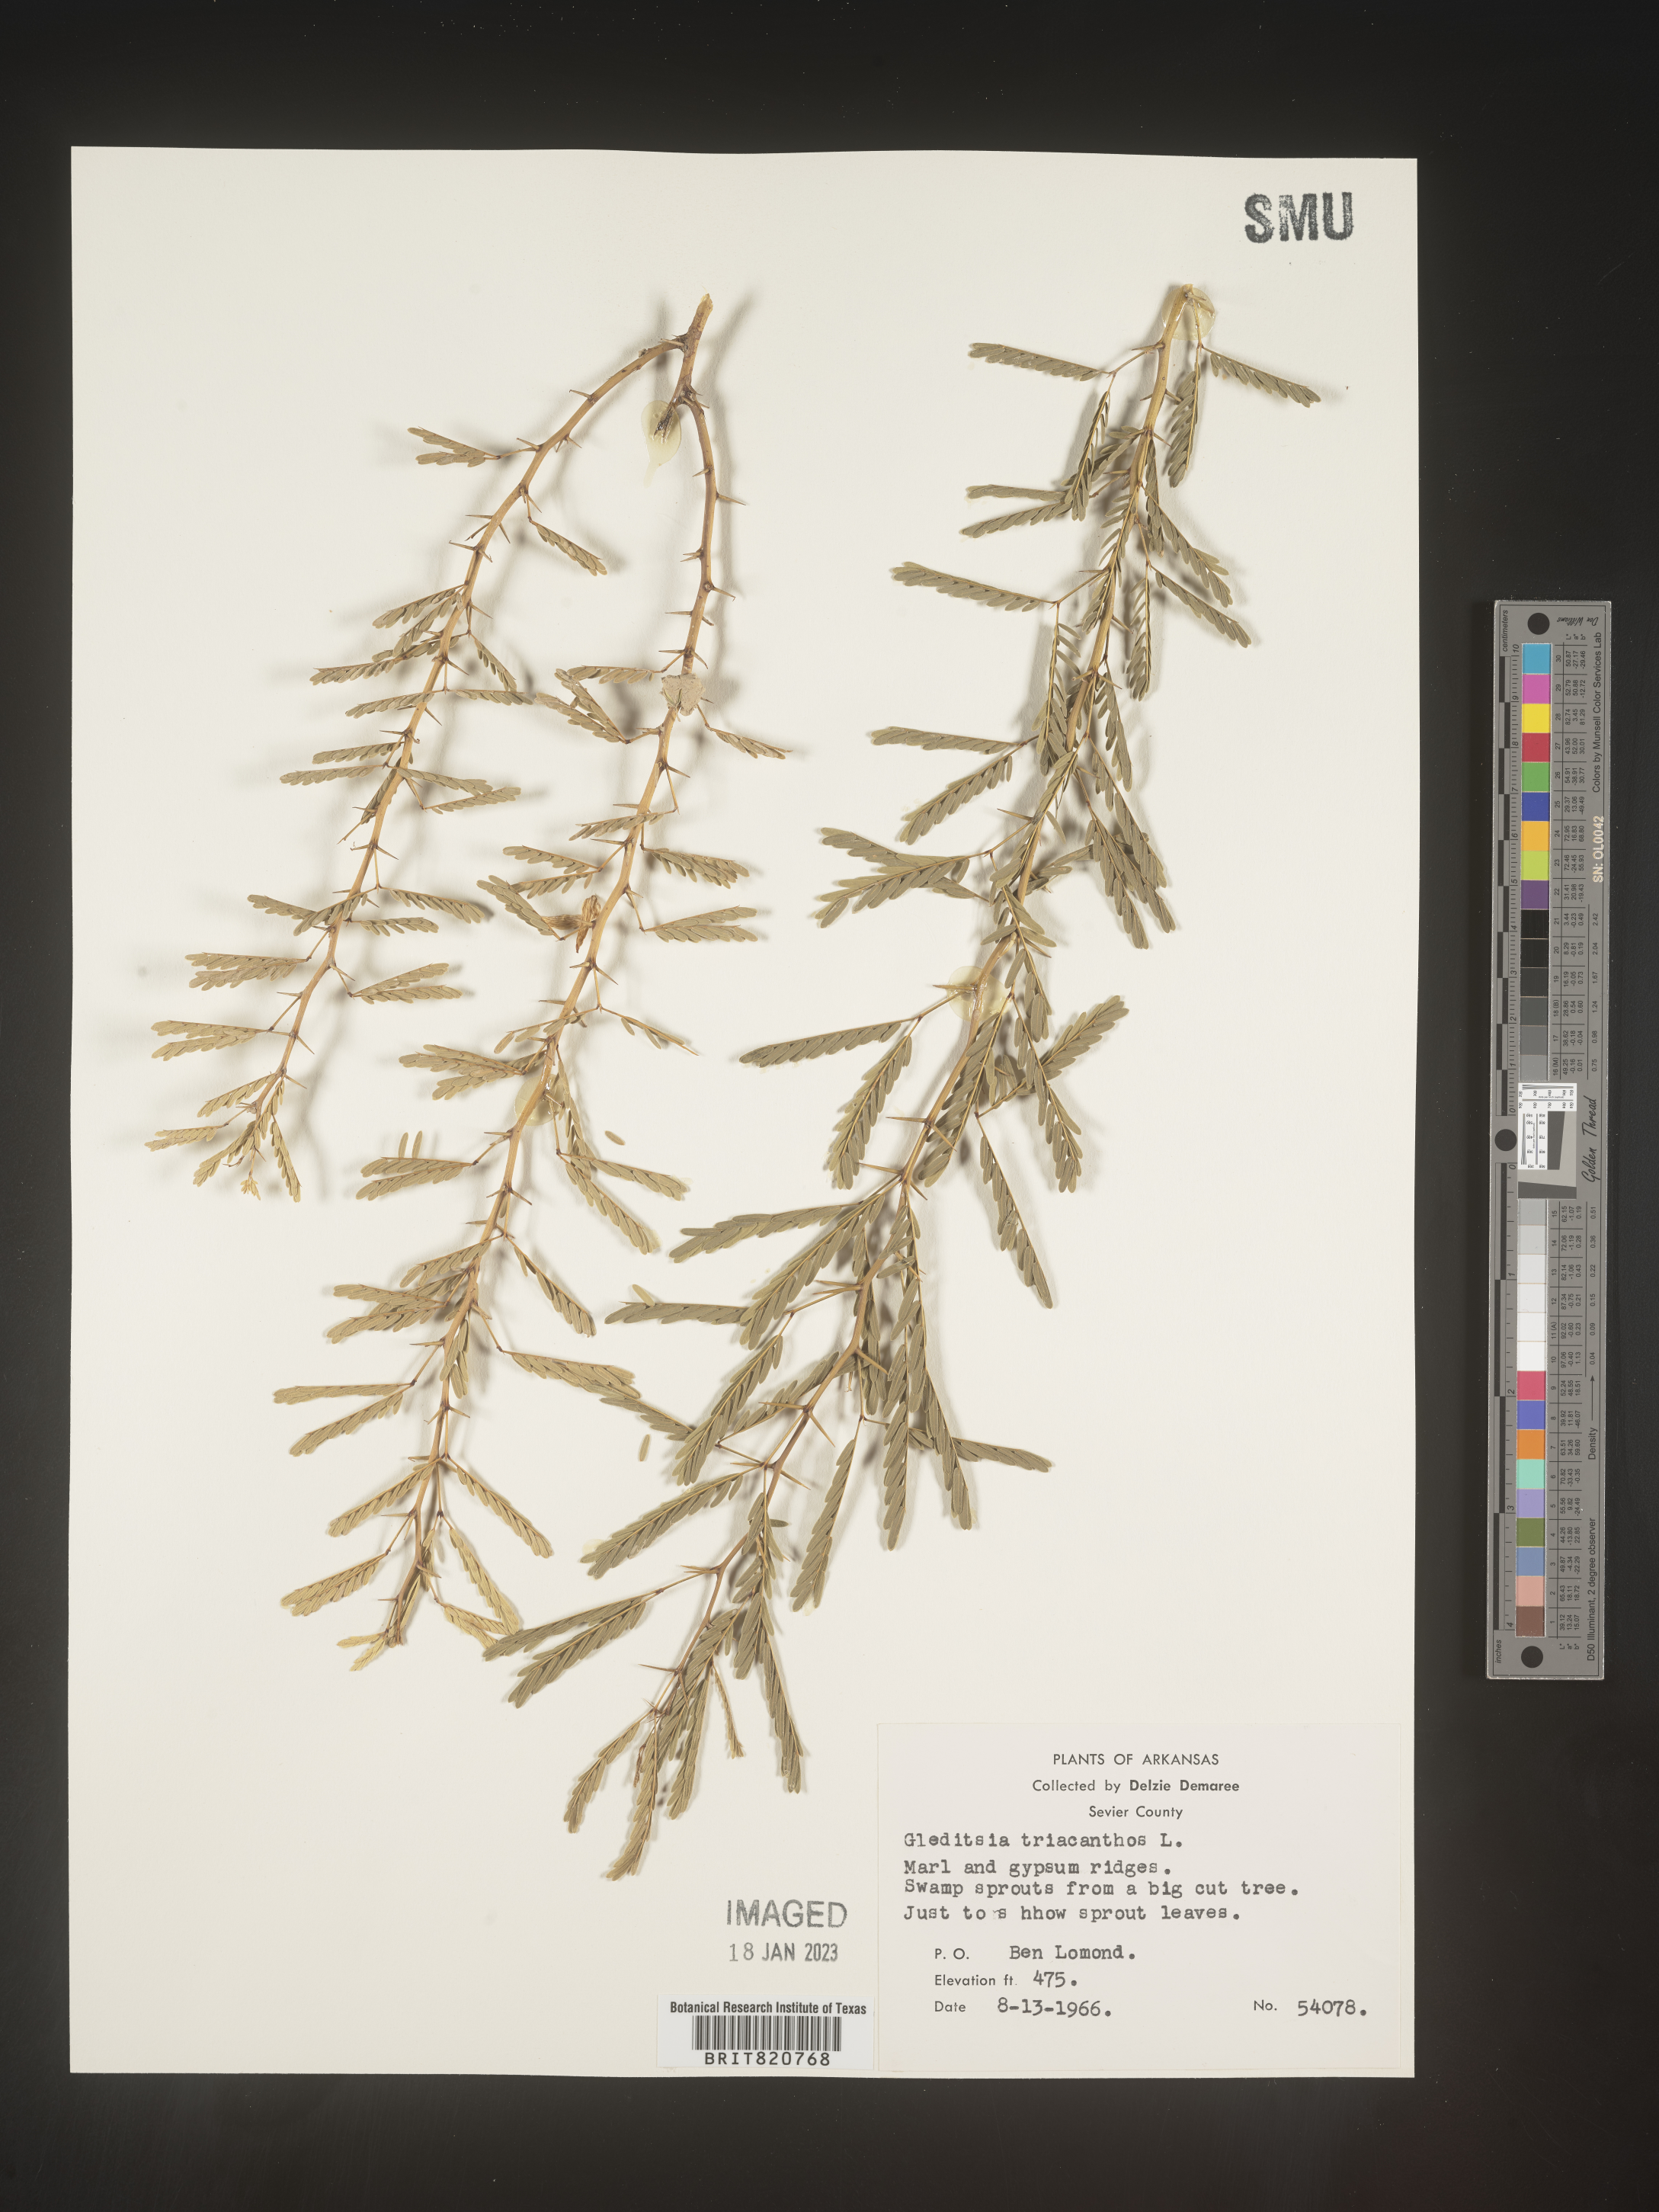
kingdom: Plantae
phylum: Tracheophyta
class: Magnoliopsida
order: Fabales
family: Fabaceae
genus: Gleditsia
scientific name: Gleditsia triacanthos
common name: Common honeylocust
